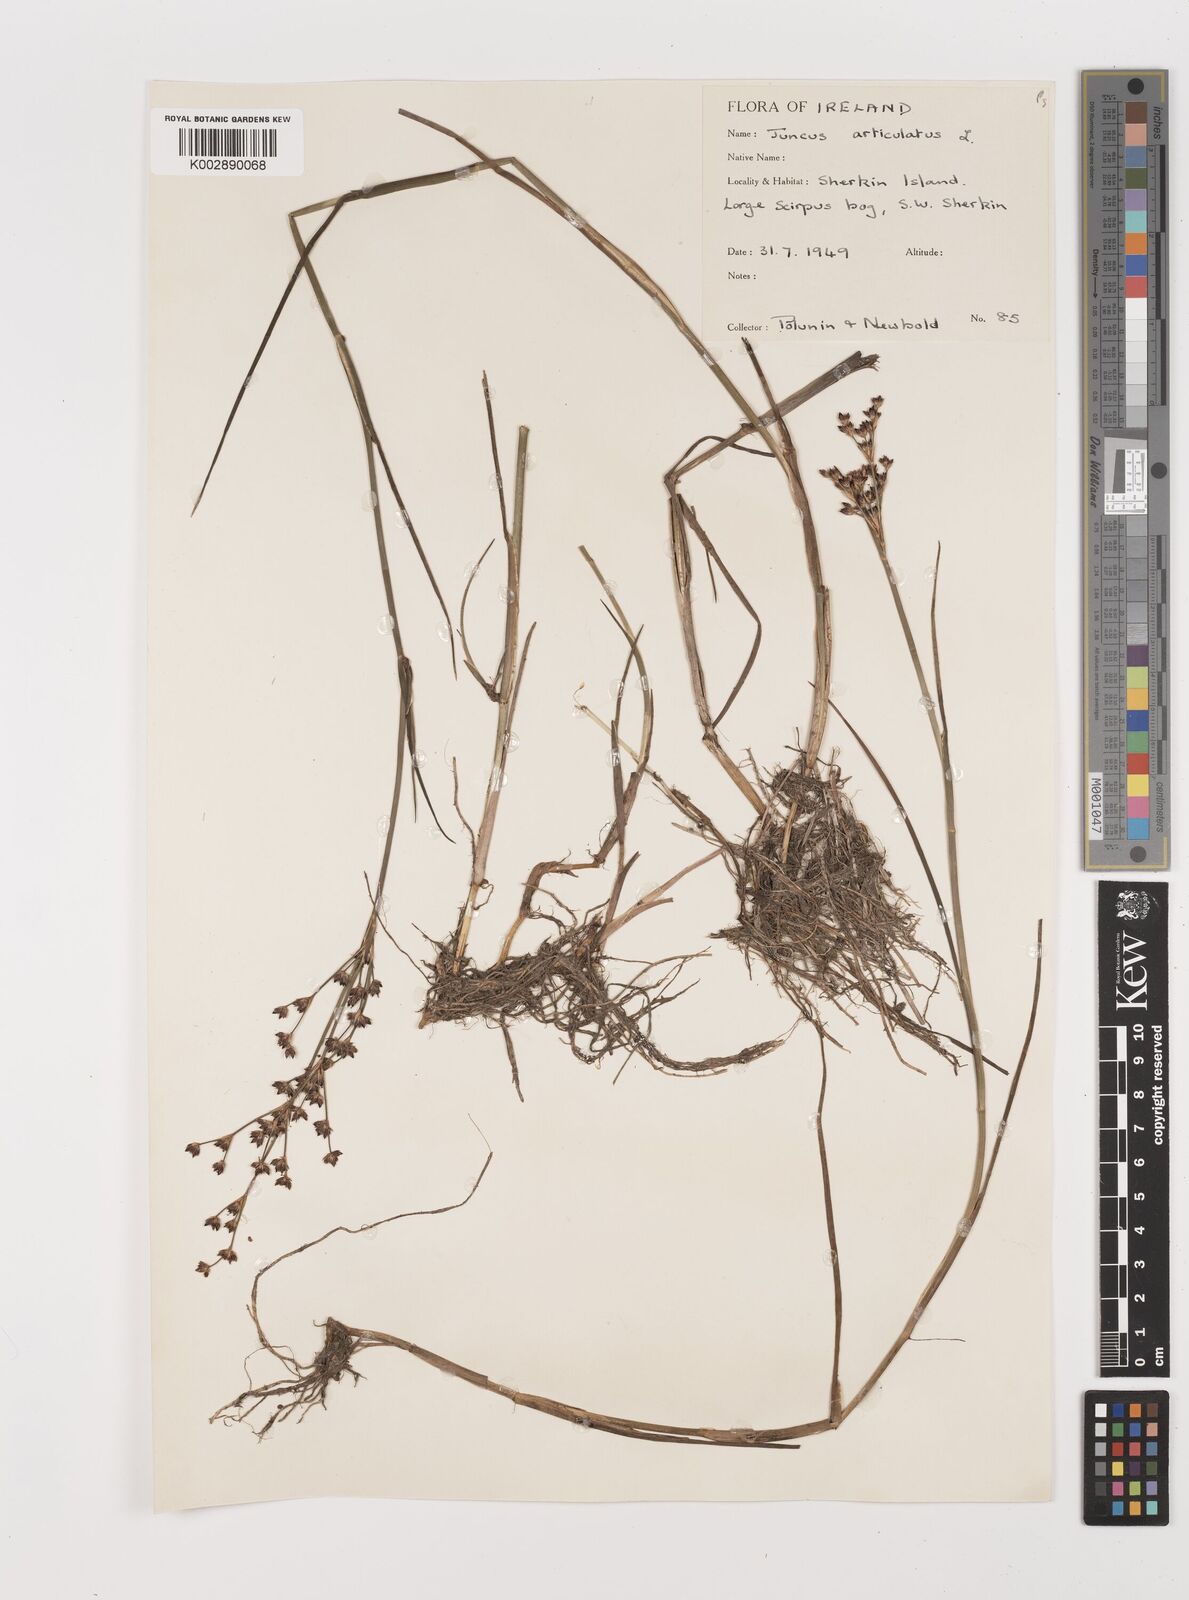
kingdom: Plantae
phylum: Tracheophyta
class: Liliopsida
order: Poales
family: Juncaceae
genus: Juncus
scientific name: Juncus articulatus
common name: Jointed rush
